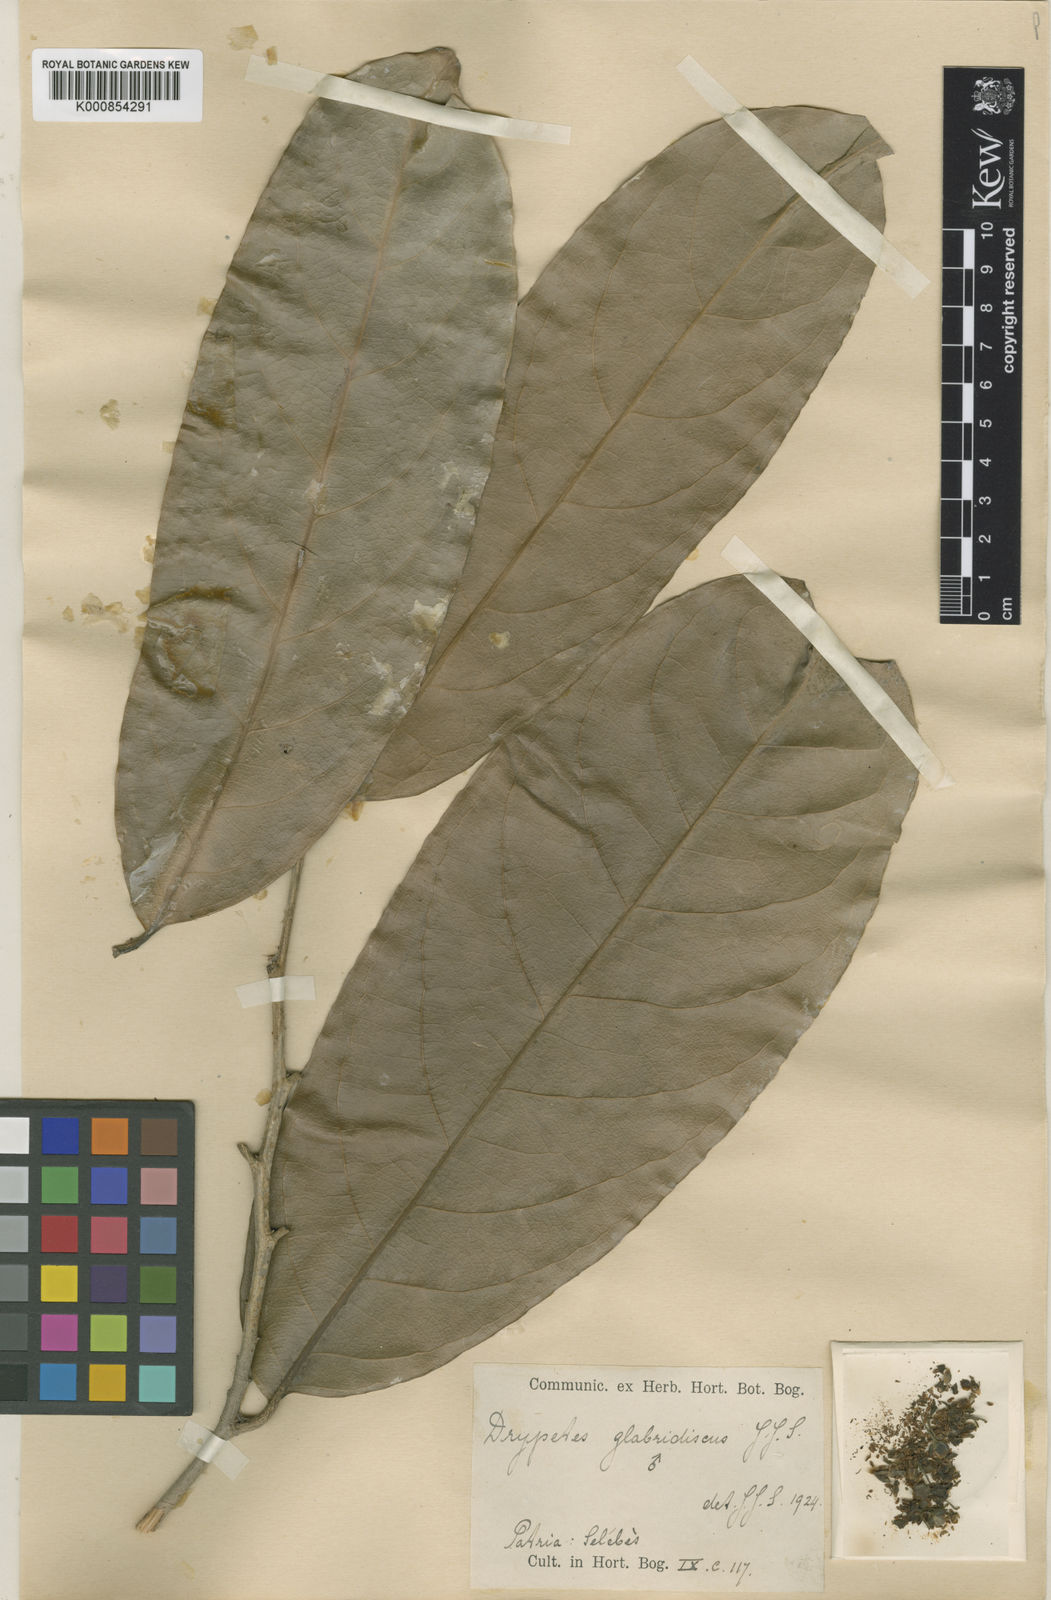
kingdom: Plantae
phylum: Tracheophyta
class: Magnoliopsida
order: Malpighiales
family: Putranjivaceae
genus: Drypetes
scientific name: Drypetes glabridiscus
